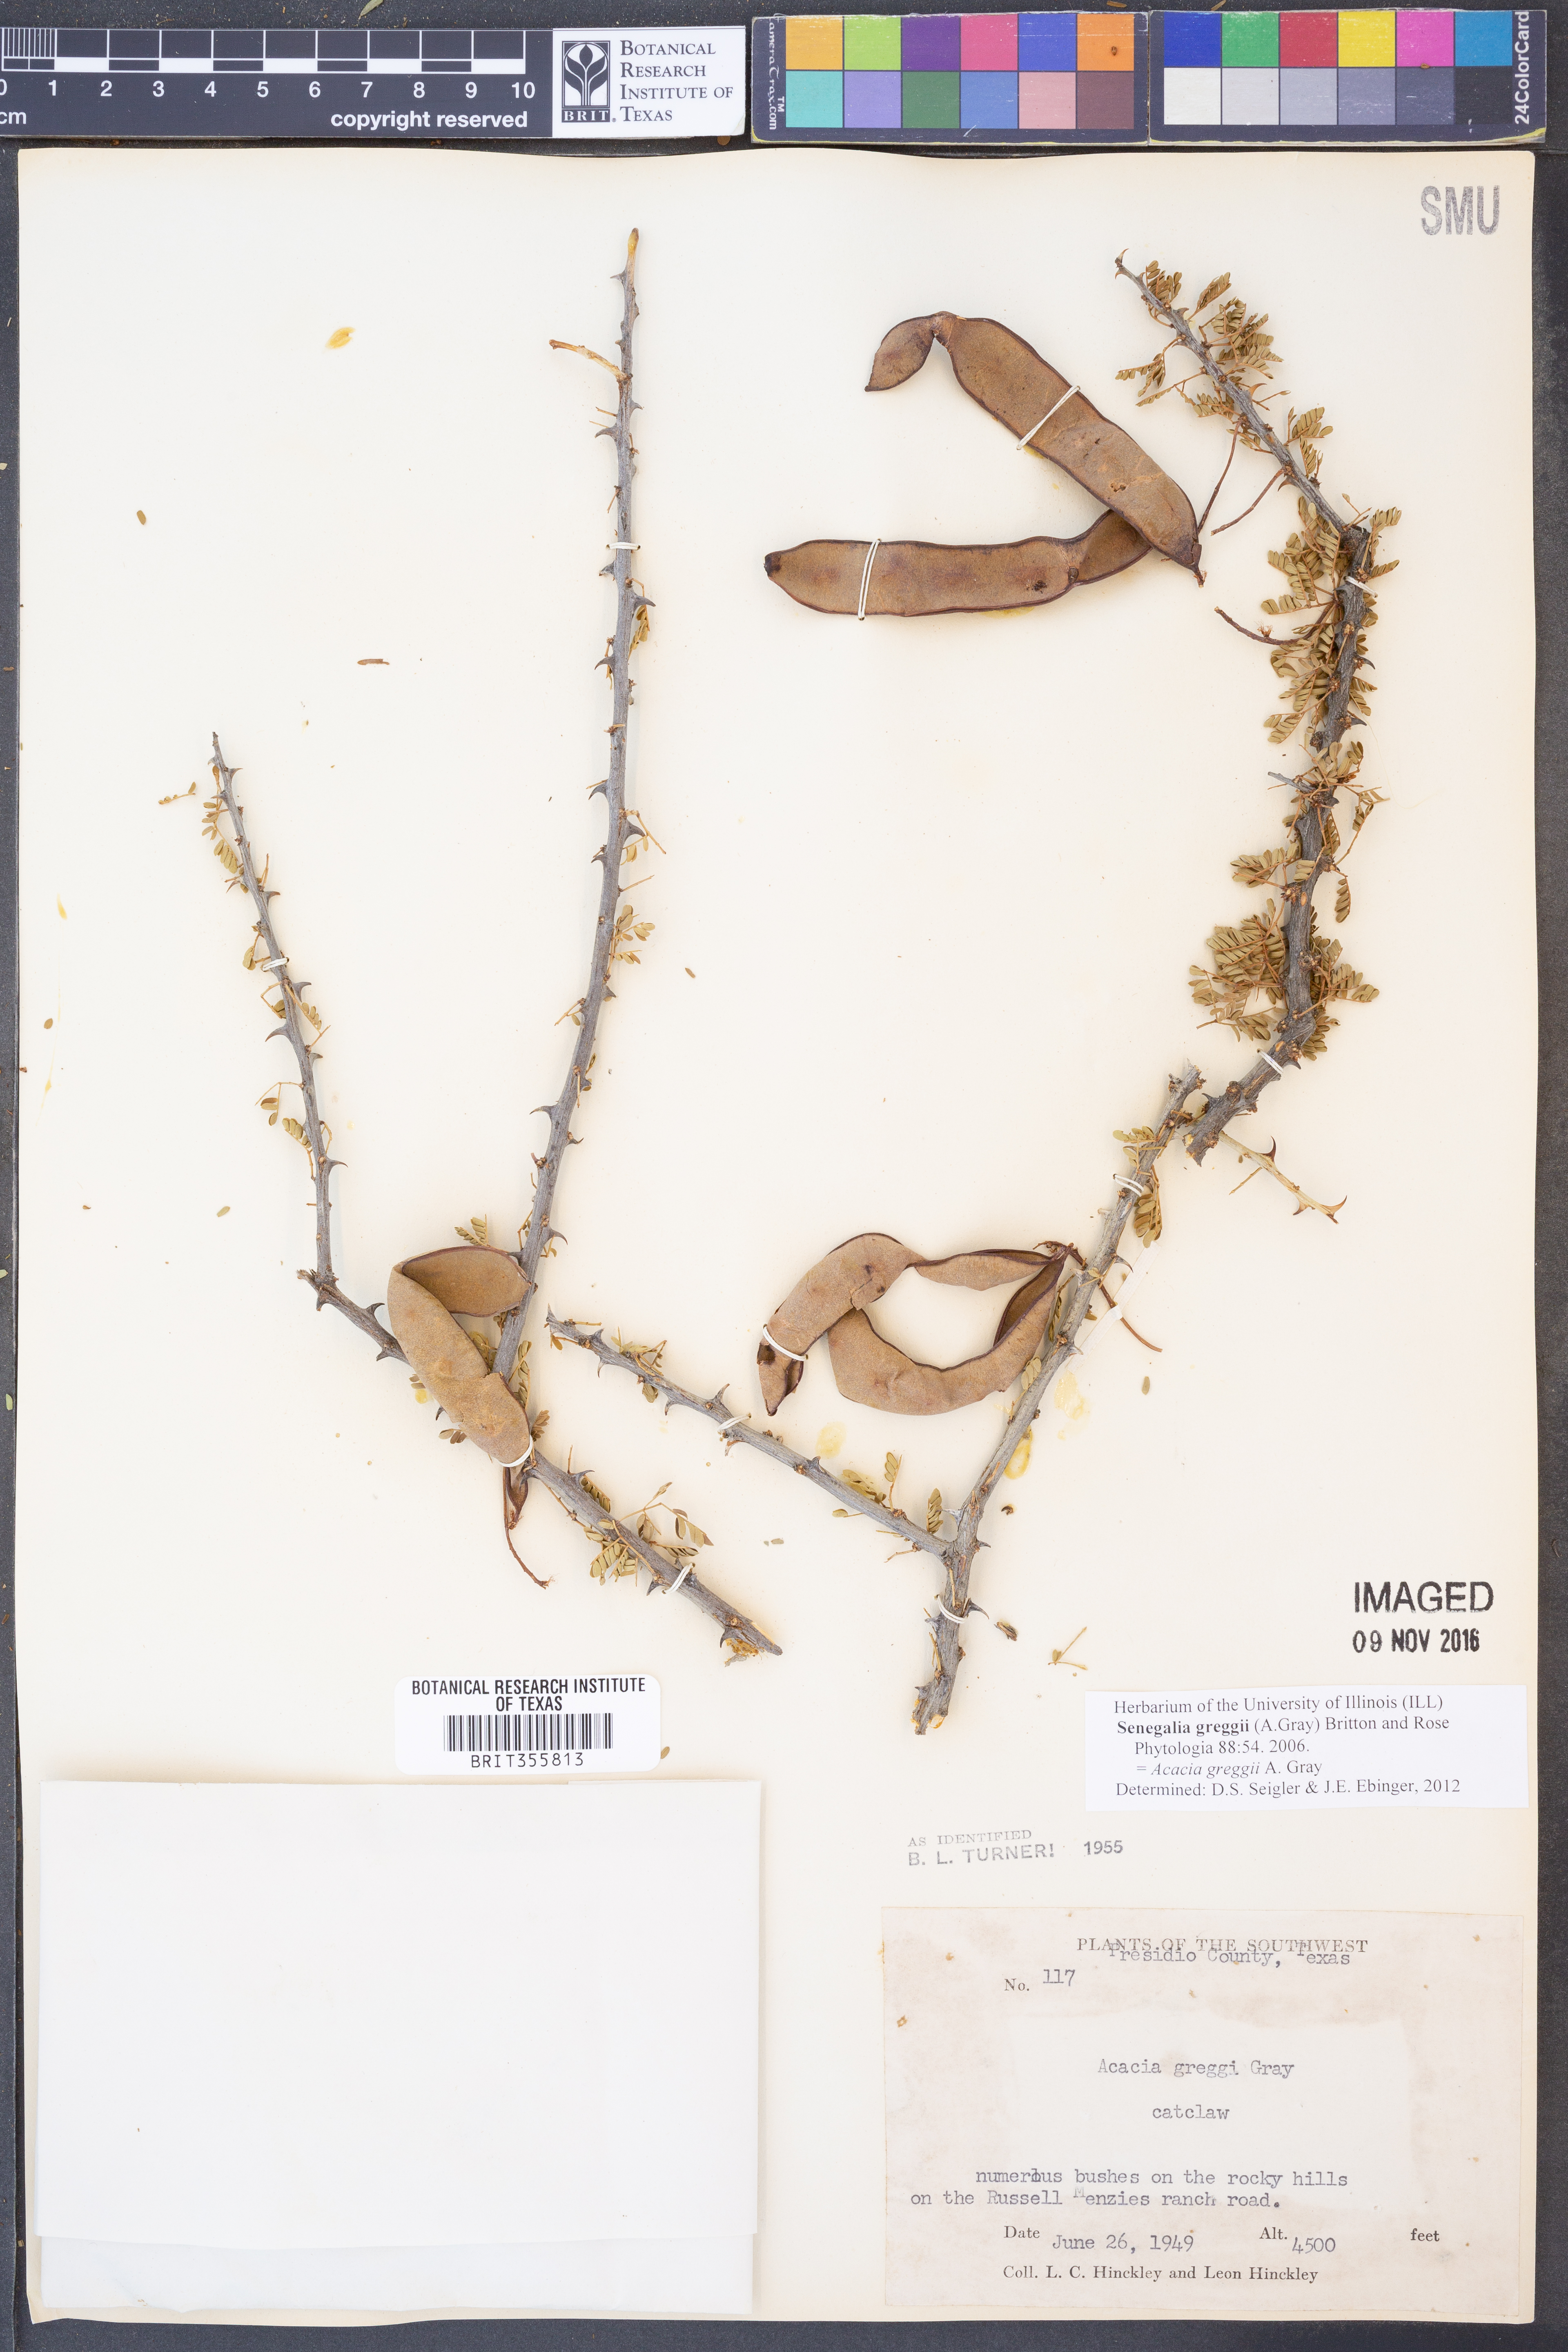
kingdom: Plantae
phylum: Tracheophyta
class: Magnoliopsida
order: Fabales
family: Fabaceae
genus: Senegalia
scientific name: Senegalia greggii
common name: Texas-mimosa
